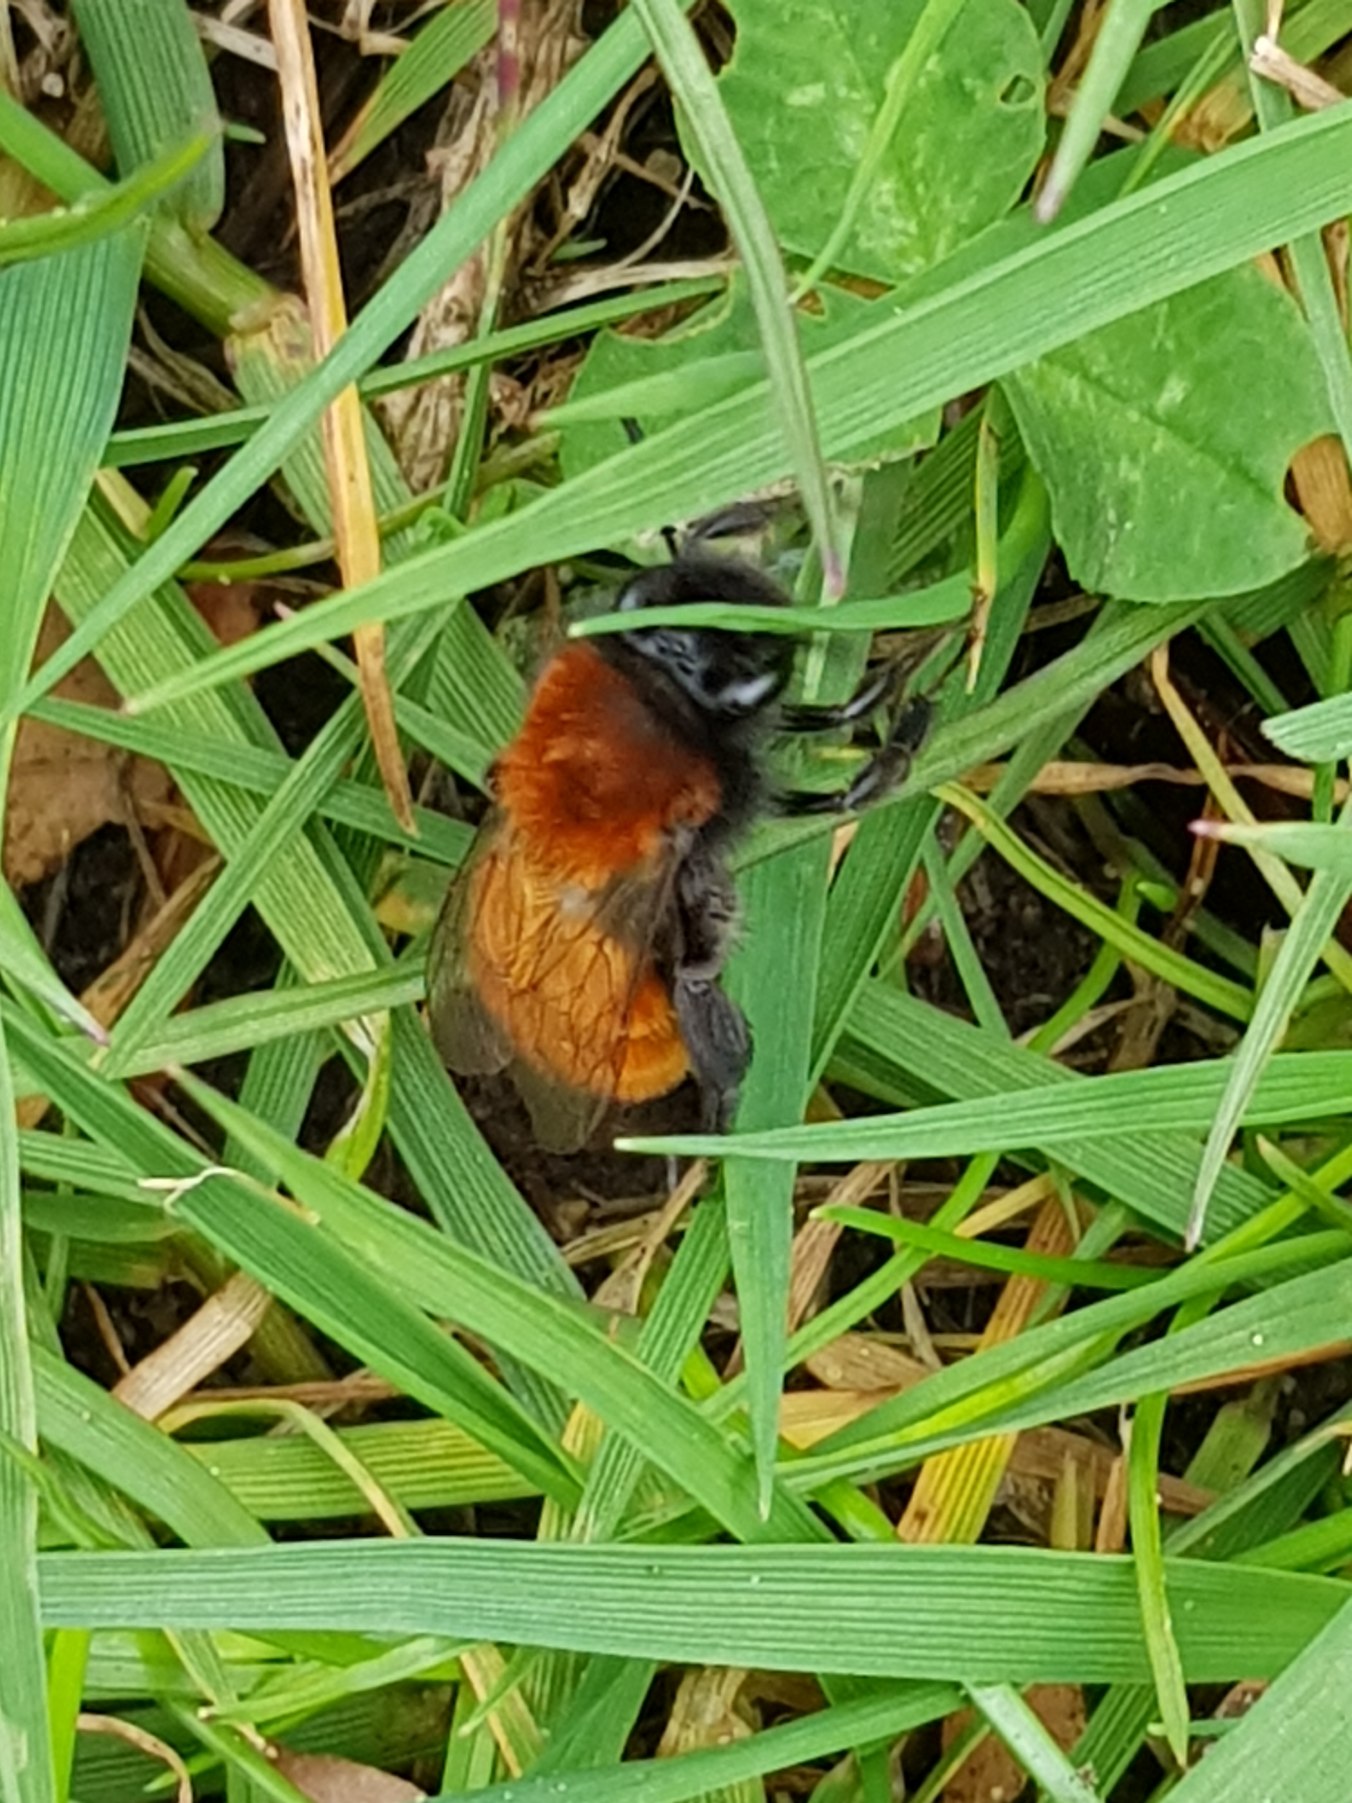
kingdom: Animalia
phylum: Arthropoda
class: Insecta
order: Hymenoptera
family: Andrenidae
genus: Andrena
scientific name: Andrena fulva
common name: Rødpelset jordbi
